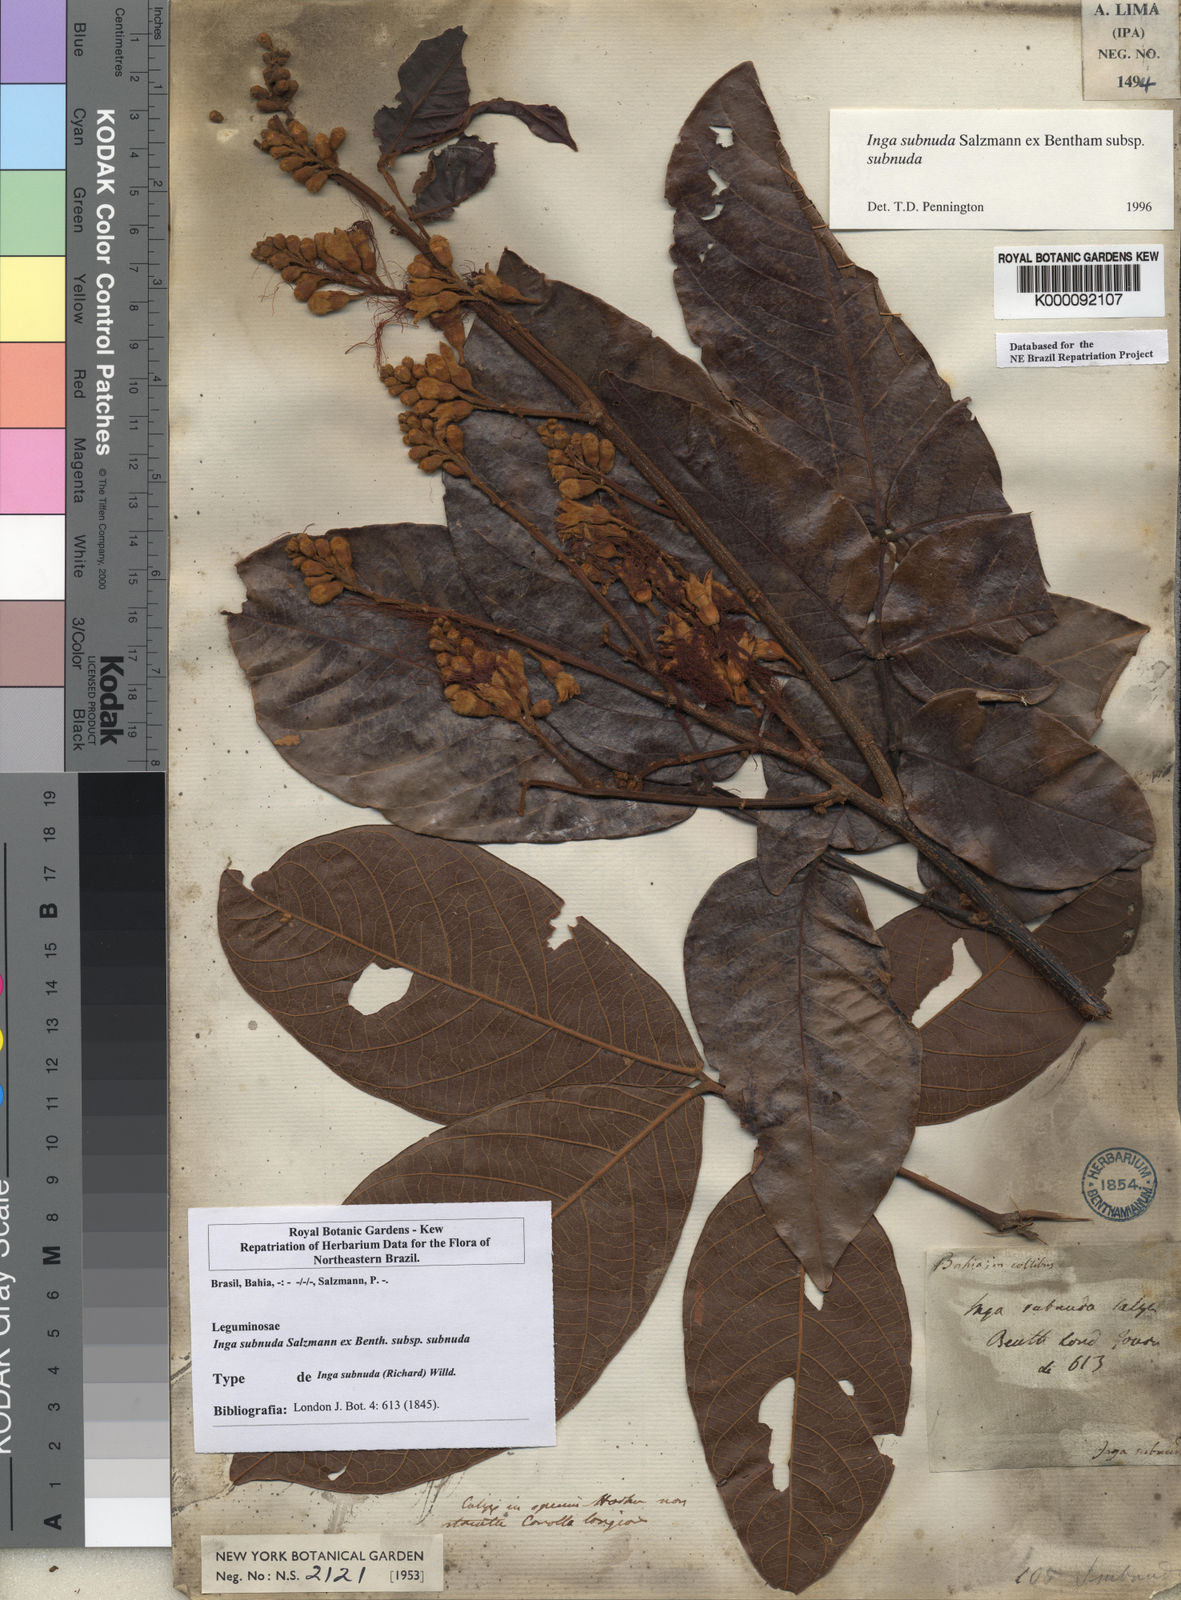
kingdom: Plantae
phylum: Tracheophyta
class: Magnoliopsida
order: Fabales
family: Fabaceae
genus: Inga
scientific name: Inga subnuda
